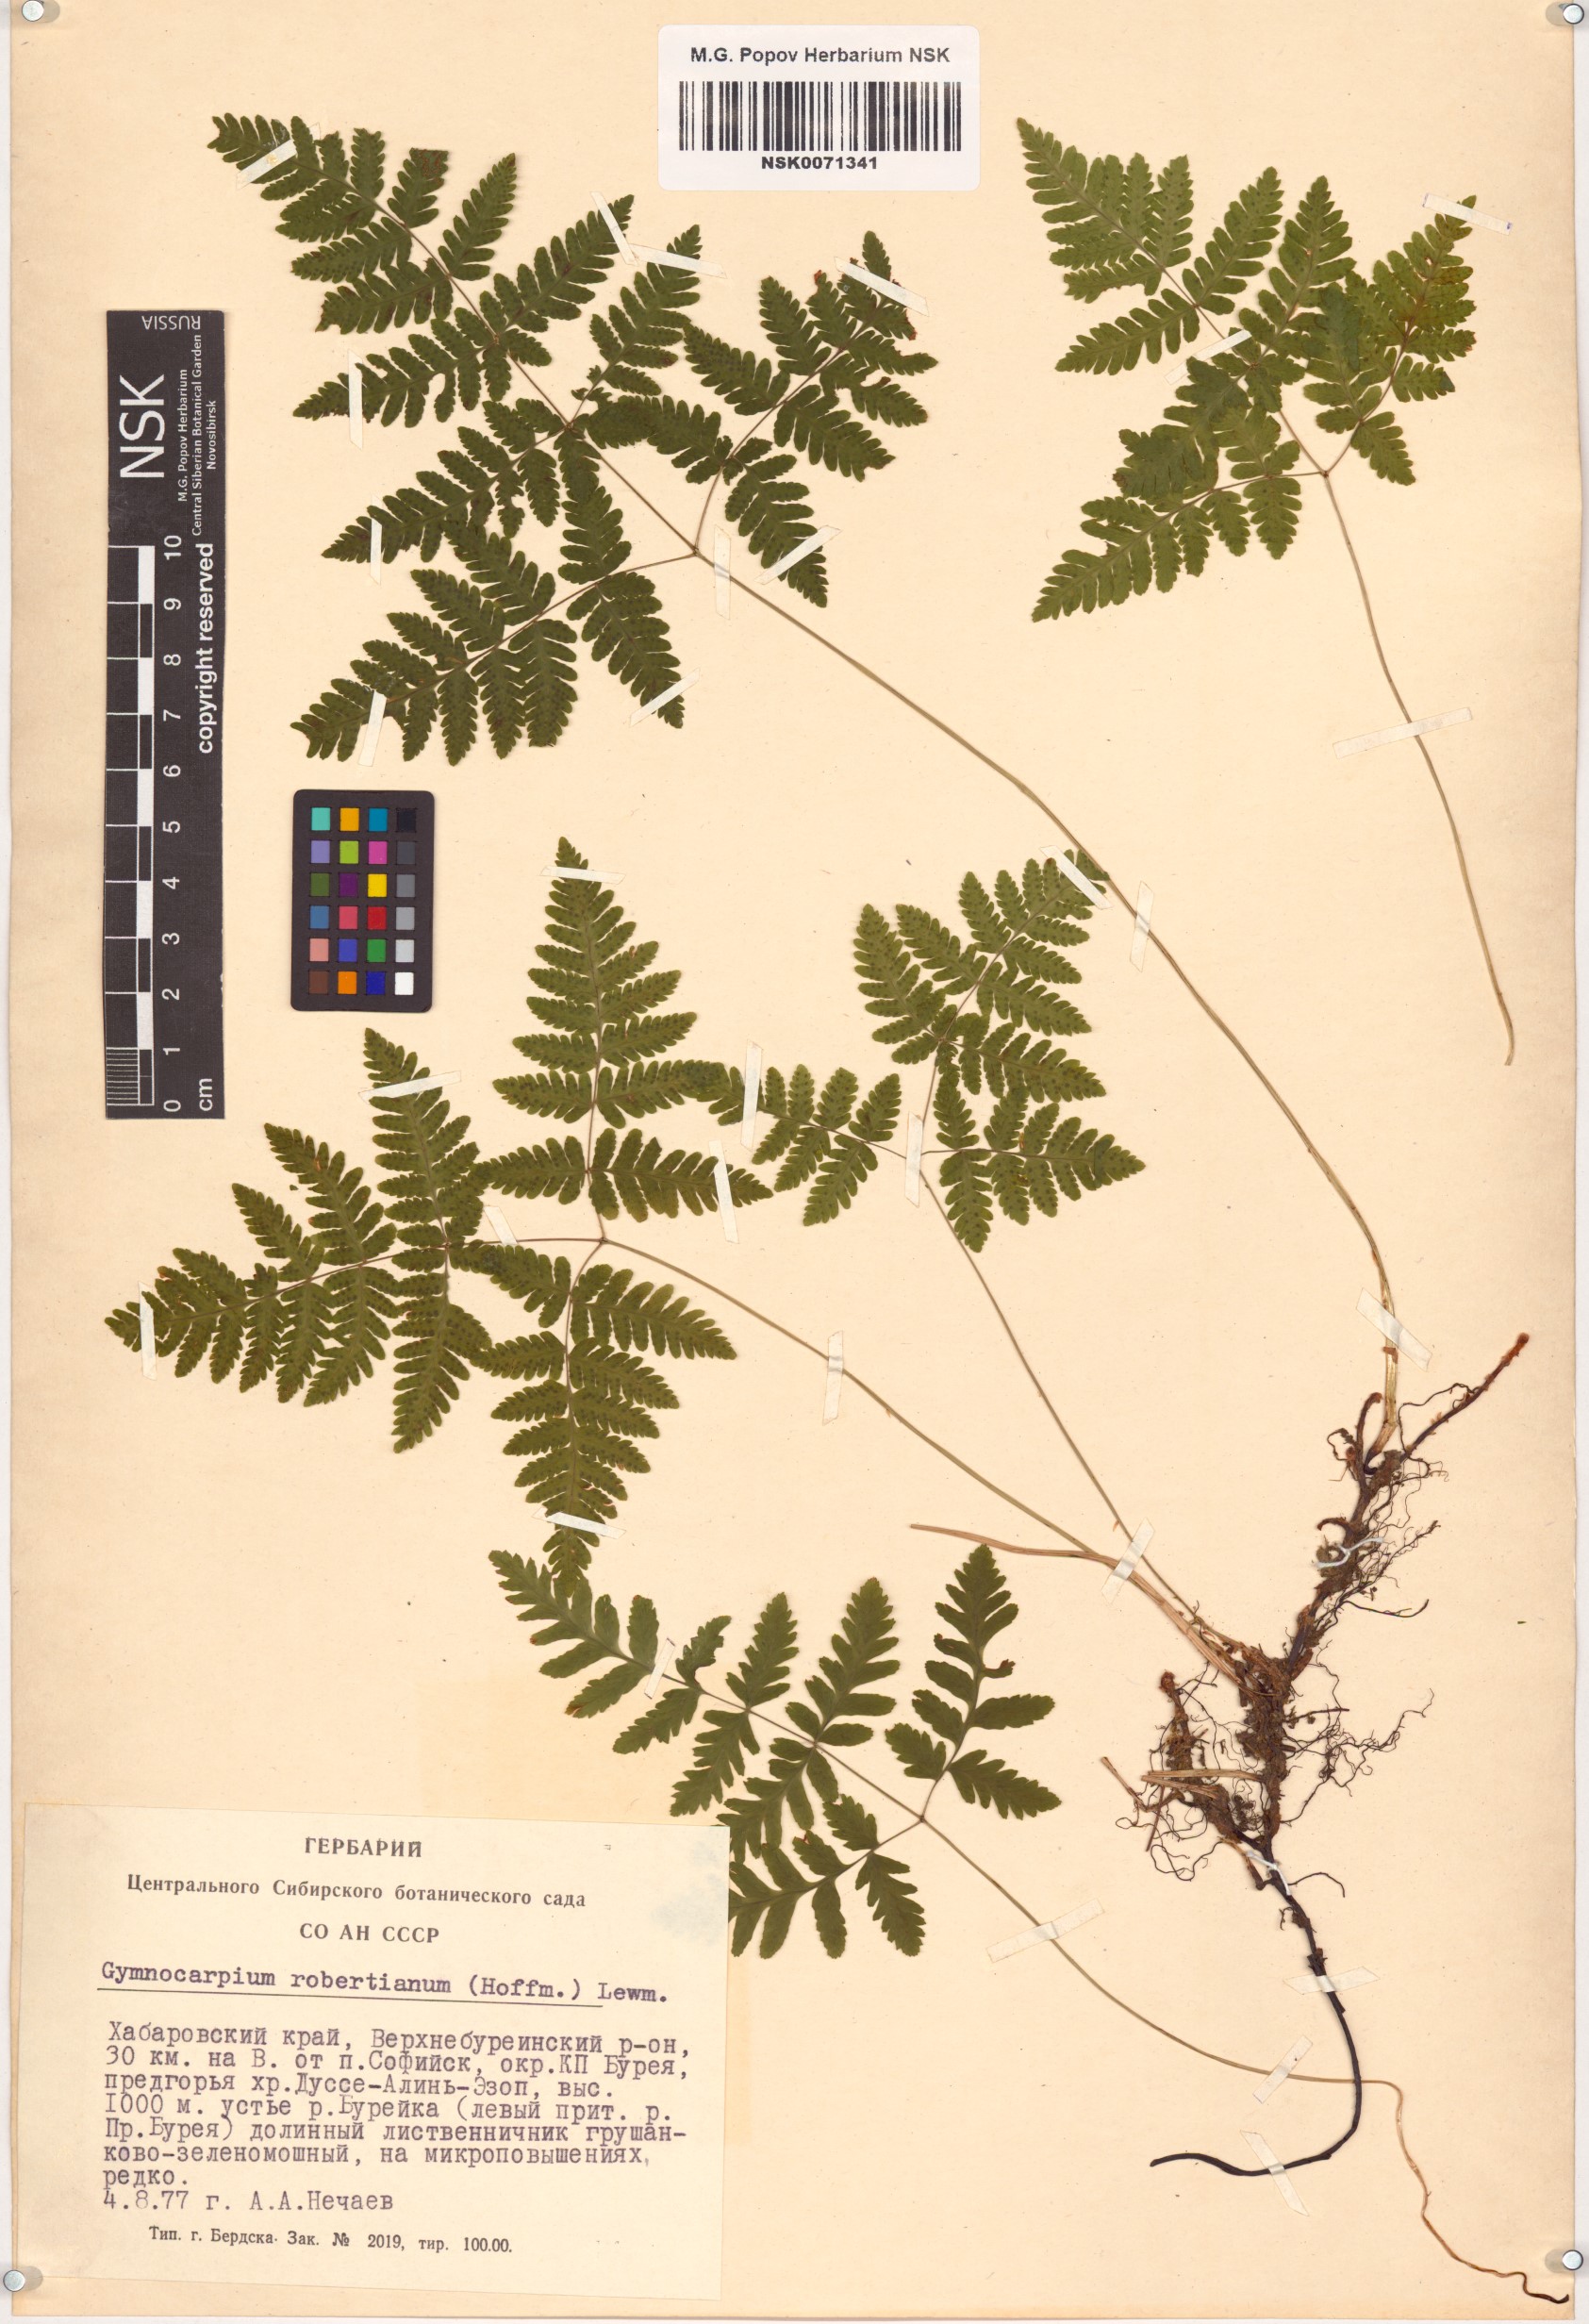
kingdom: Plantae
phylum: Tracheophyta
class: Polypodiopsida
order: Polypodiales
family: Cystopteridaceae
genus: Gymnocarpium
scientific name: Gymnocarpium robertianum
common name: Limestone fern
